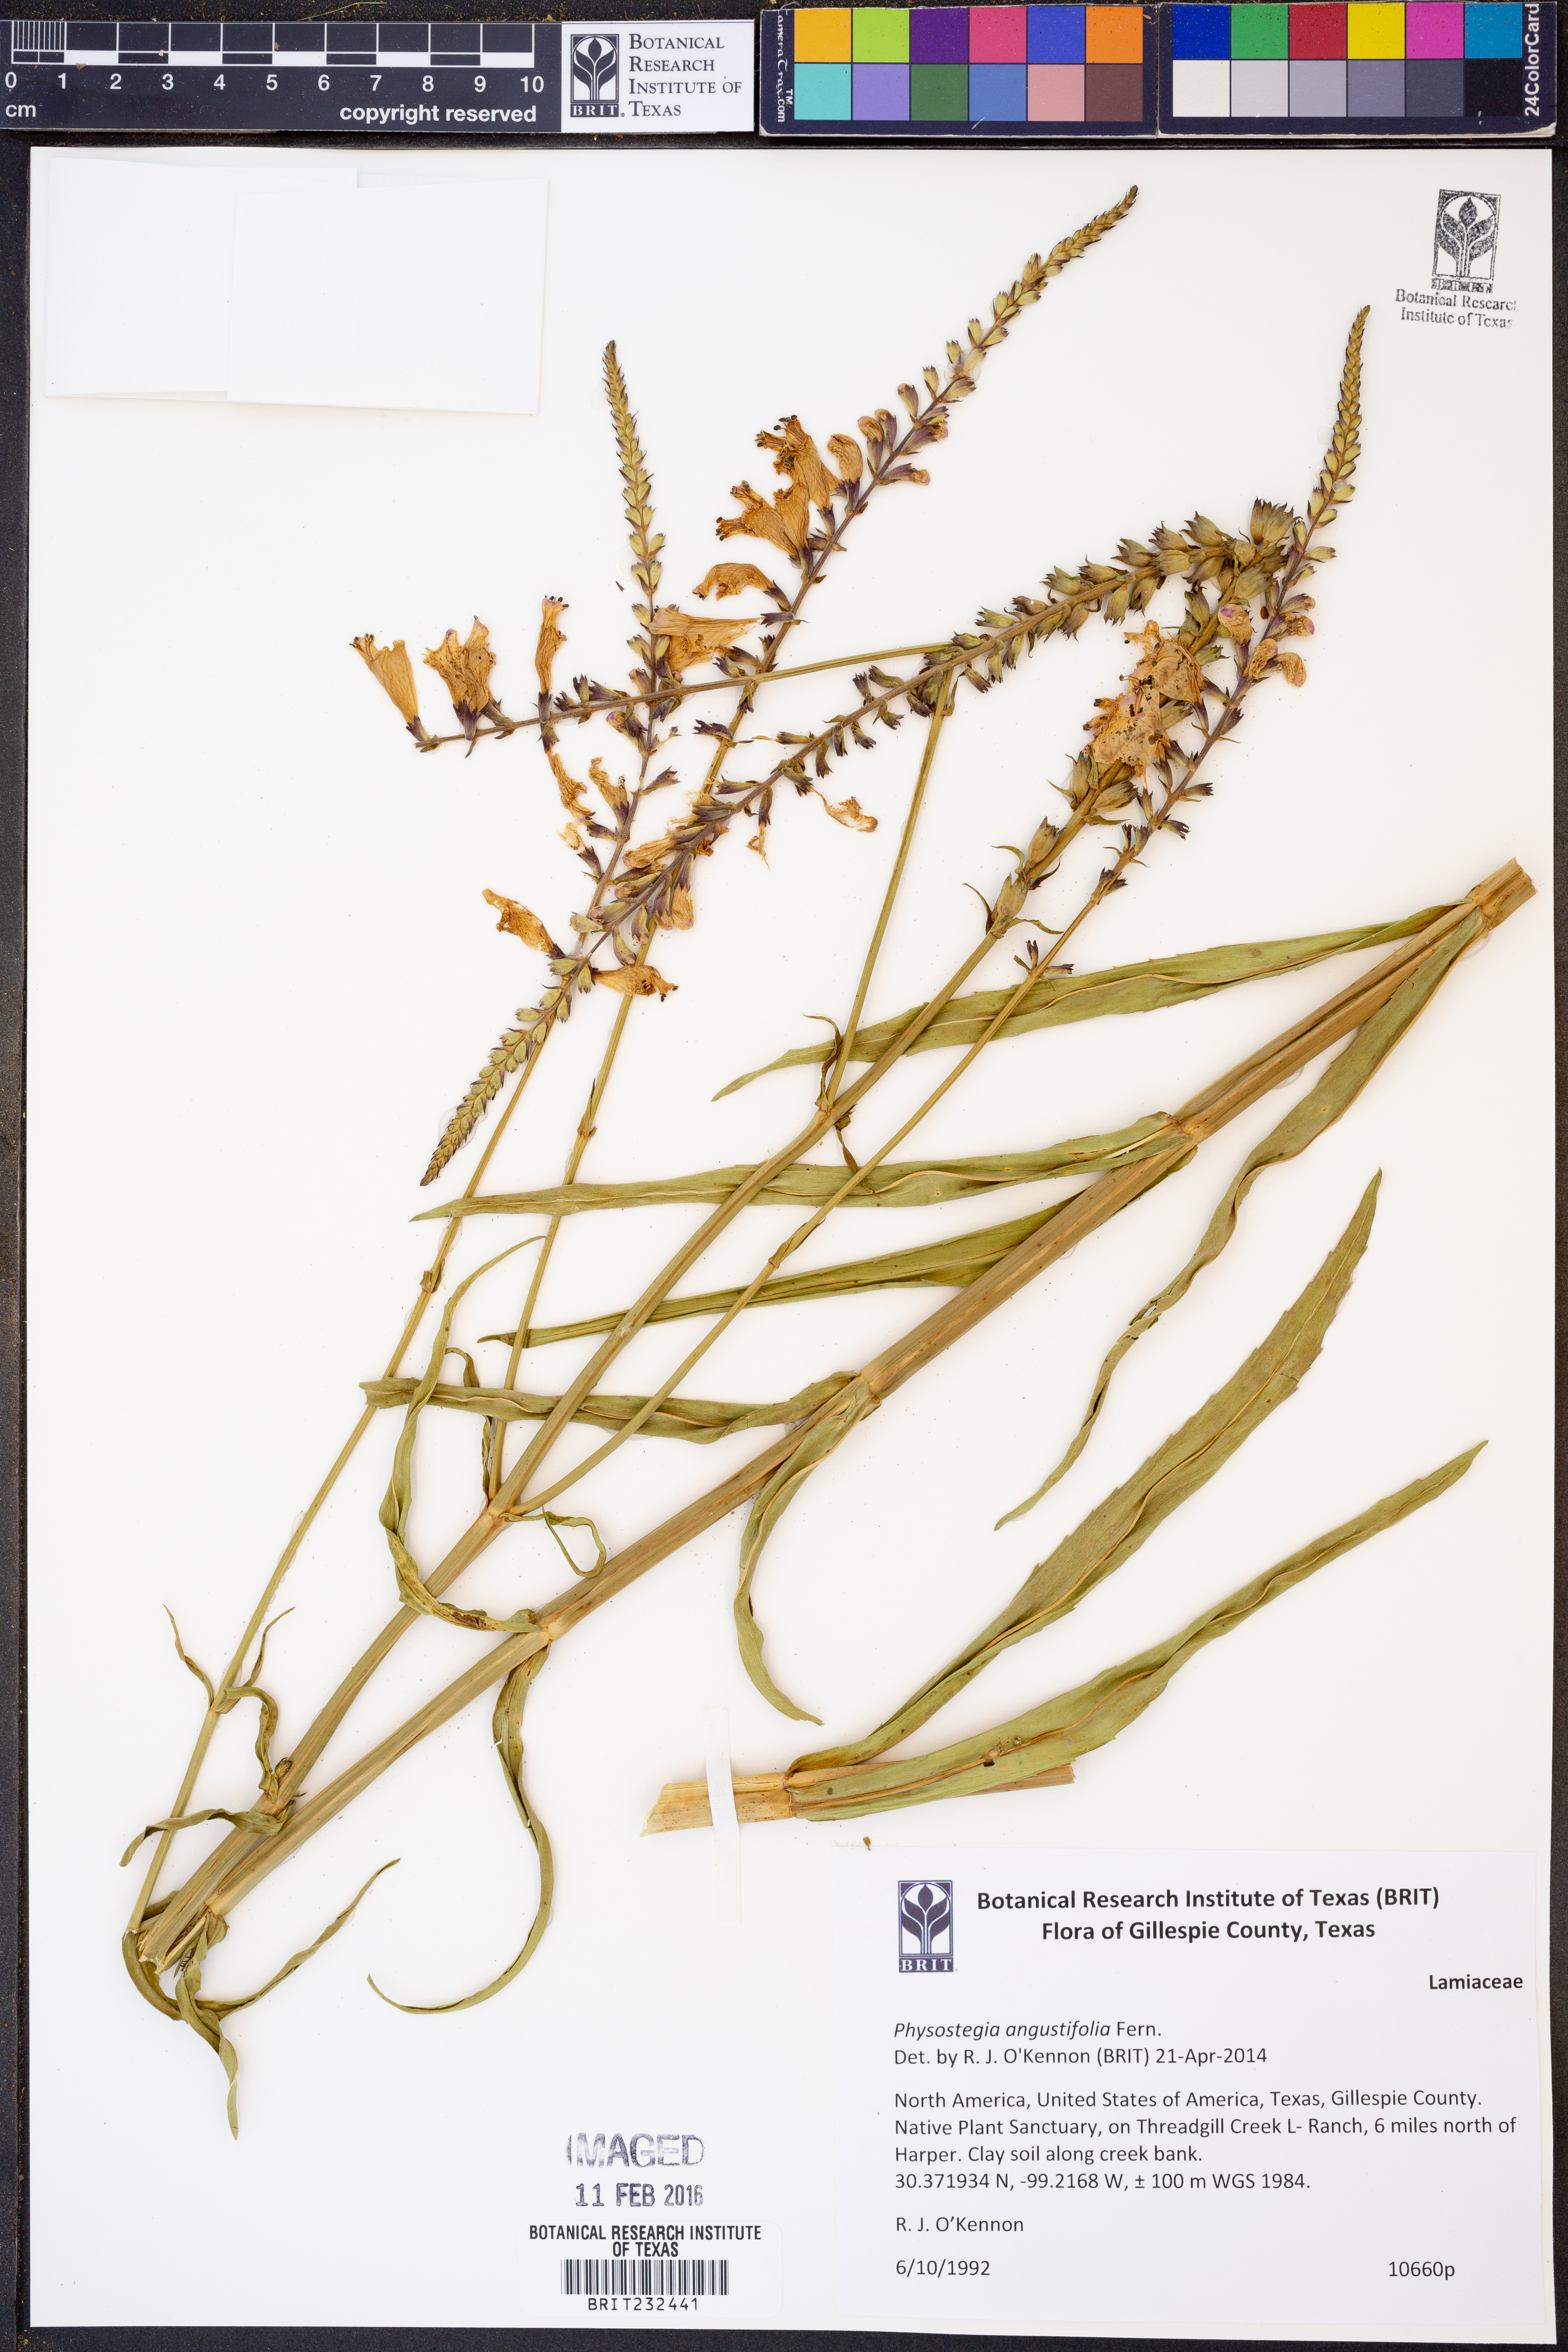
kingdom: Plantae
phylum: Tracheophyta
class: Magnoliopsida
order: Lamiales
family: Lamiaceae
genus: Physostegia
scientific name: Physostegia angustifolia
